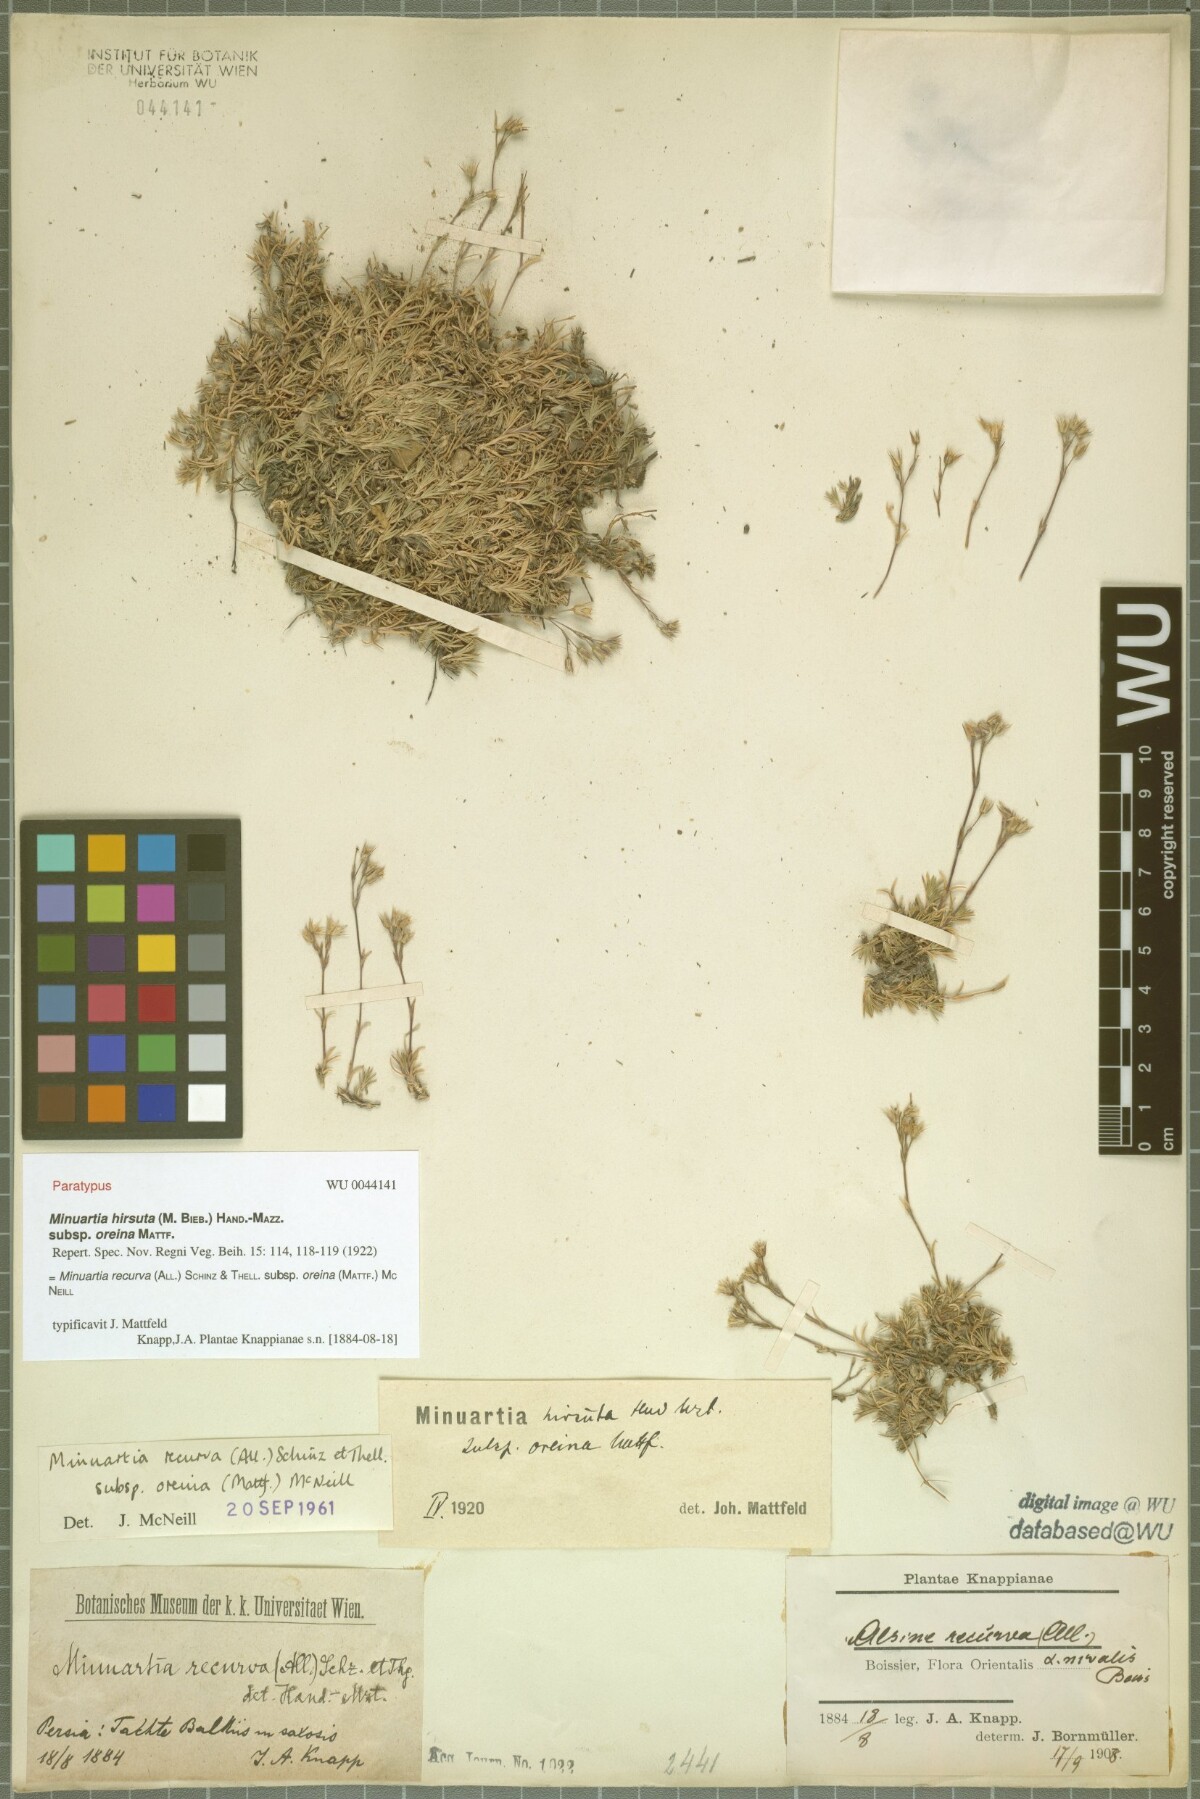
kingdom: Plantae
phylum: Tracheophyta
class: Magnoliopsida
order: Caryophyllales
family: Caryophyllaceae
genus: Minuartia
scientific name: Minuartia hirsuta
